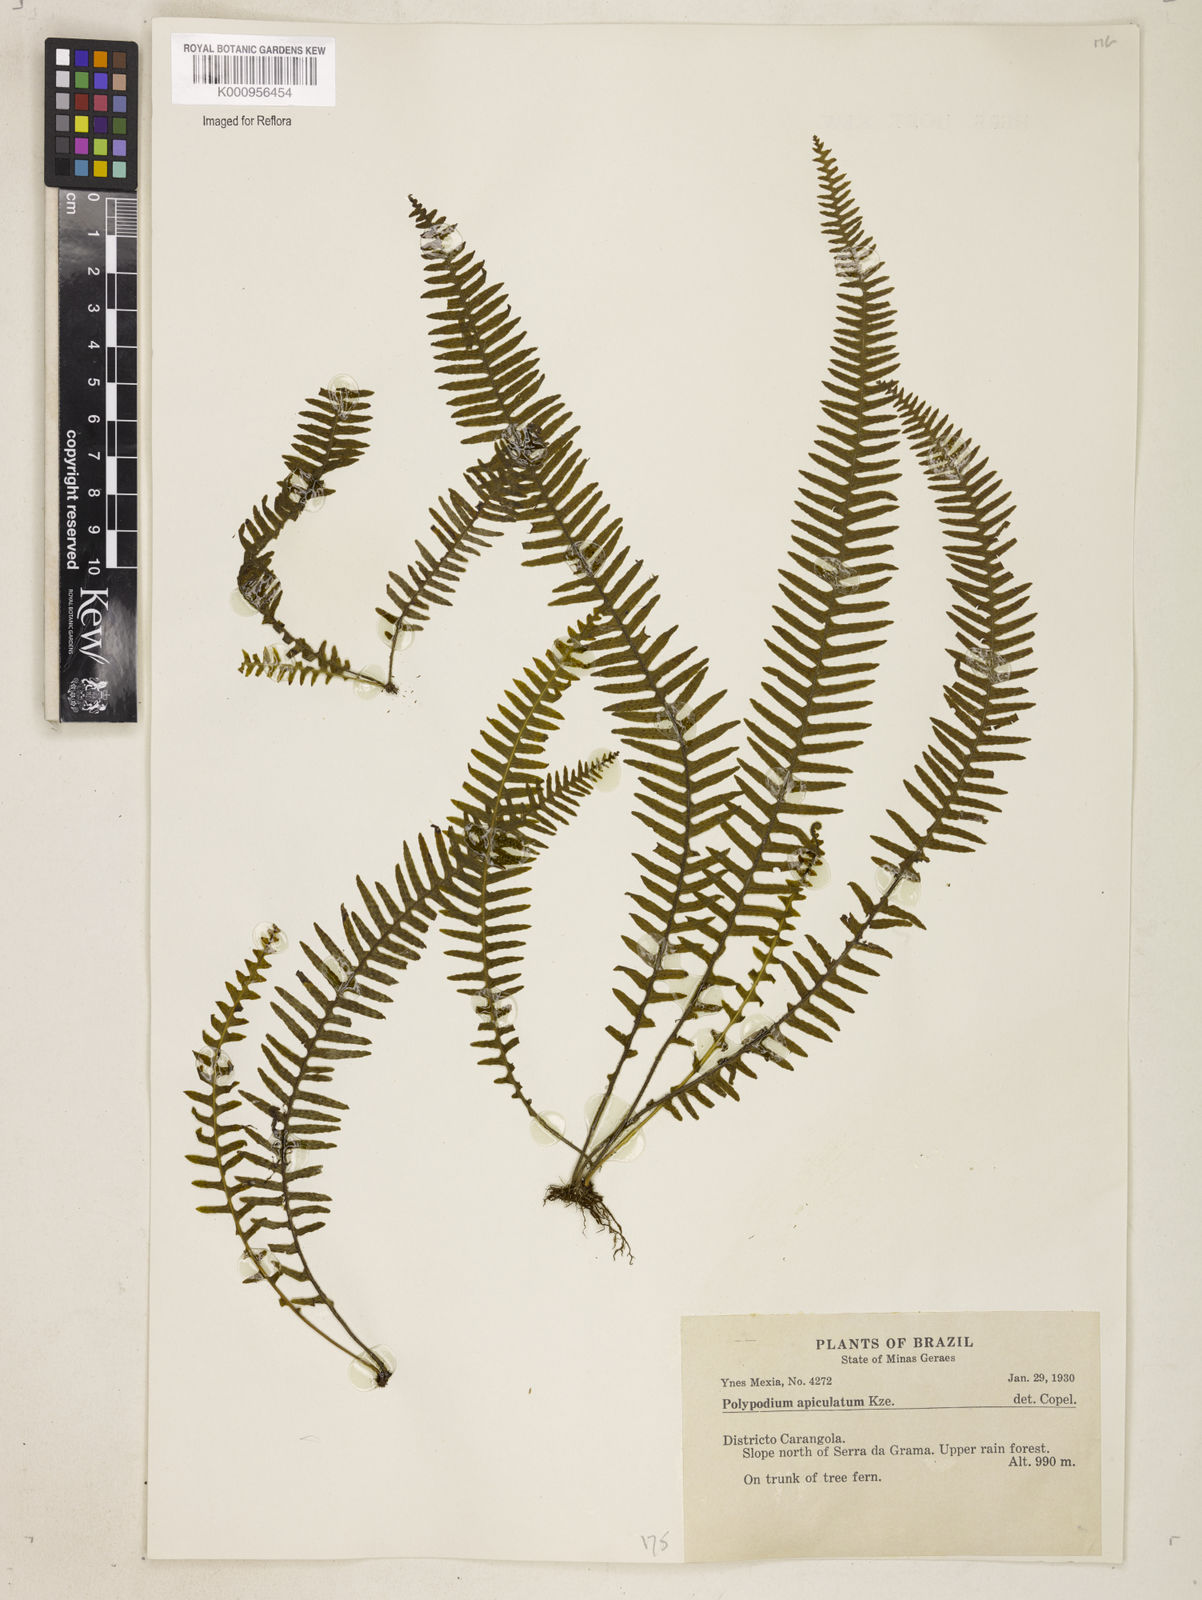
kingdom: Plantae
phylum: Tracheophyta
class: Polypodiopsida
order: Polypodiales
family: Polypodiaceae
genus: Polypodium
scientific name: Polypodium
